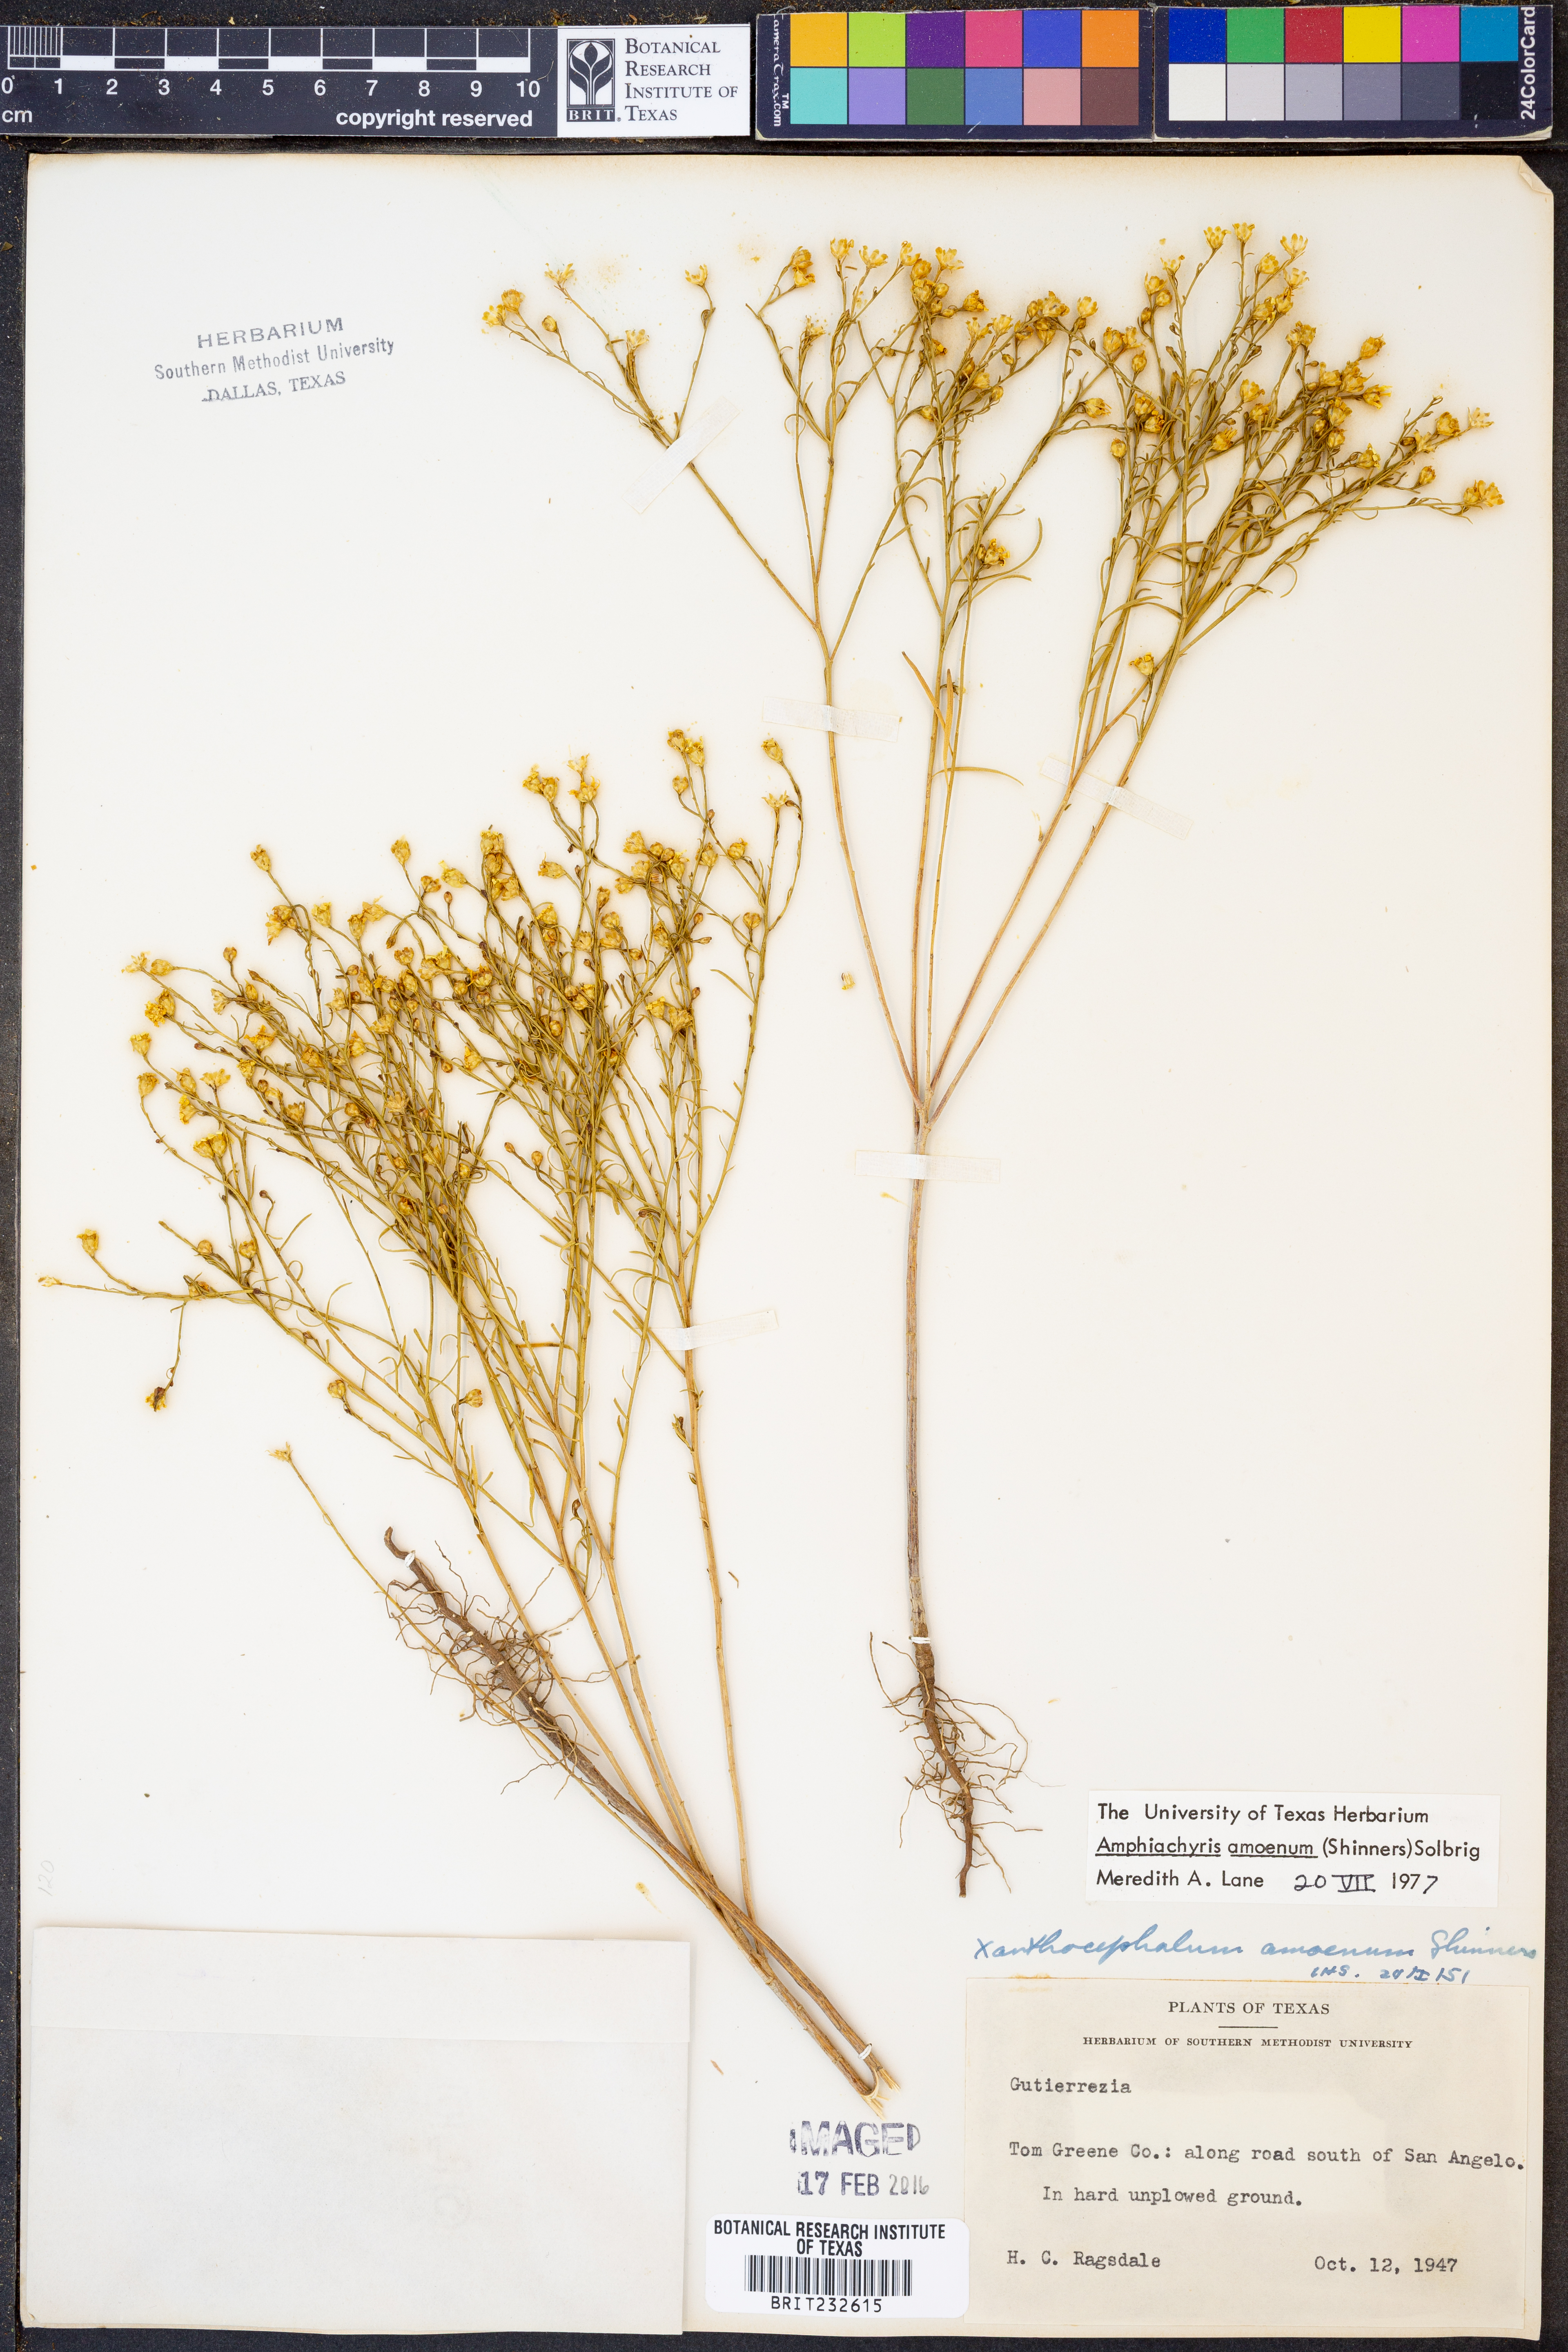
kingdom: Plantae
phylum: Tracheophyta
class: Magnoliopsida
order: Asterales
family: Asteraceae
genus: Amphiachyris
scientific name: Amphiachyris amoenum
